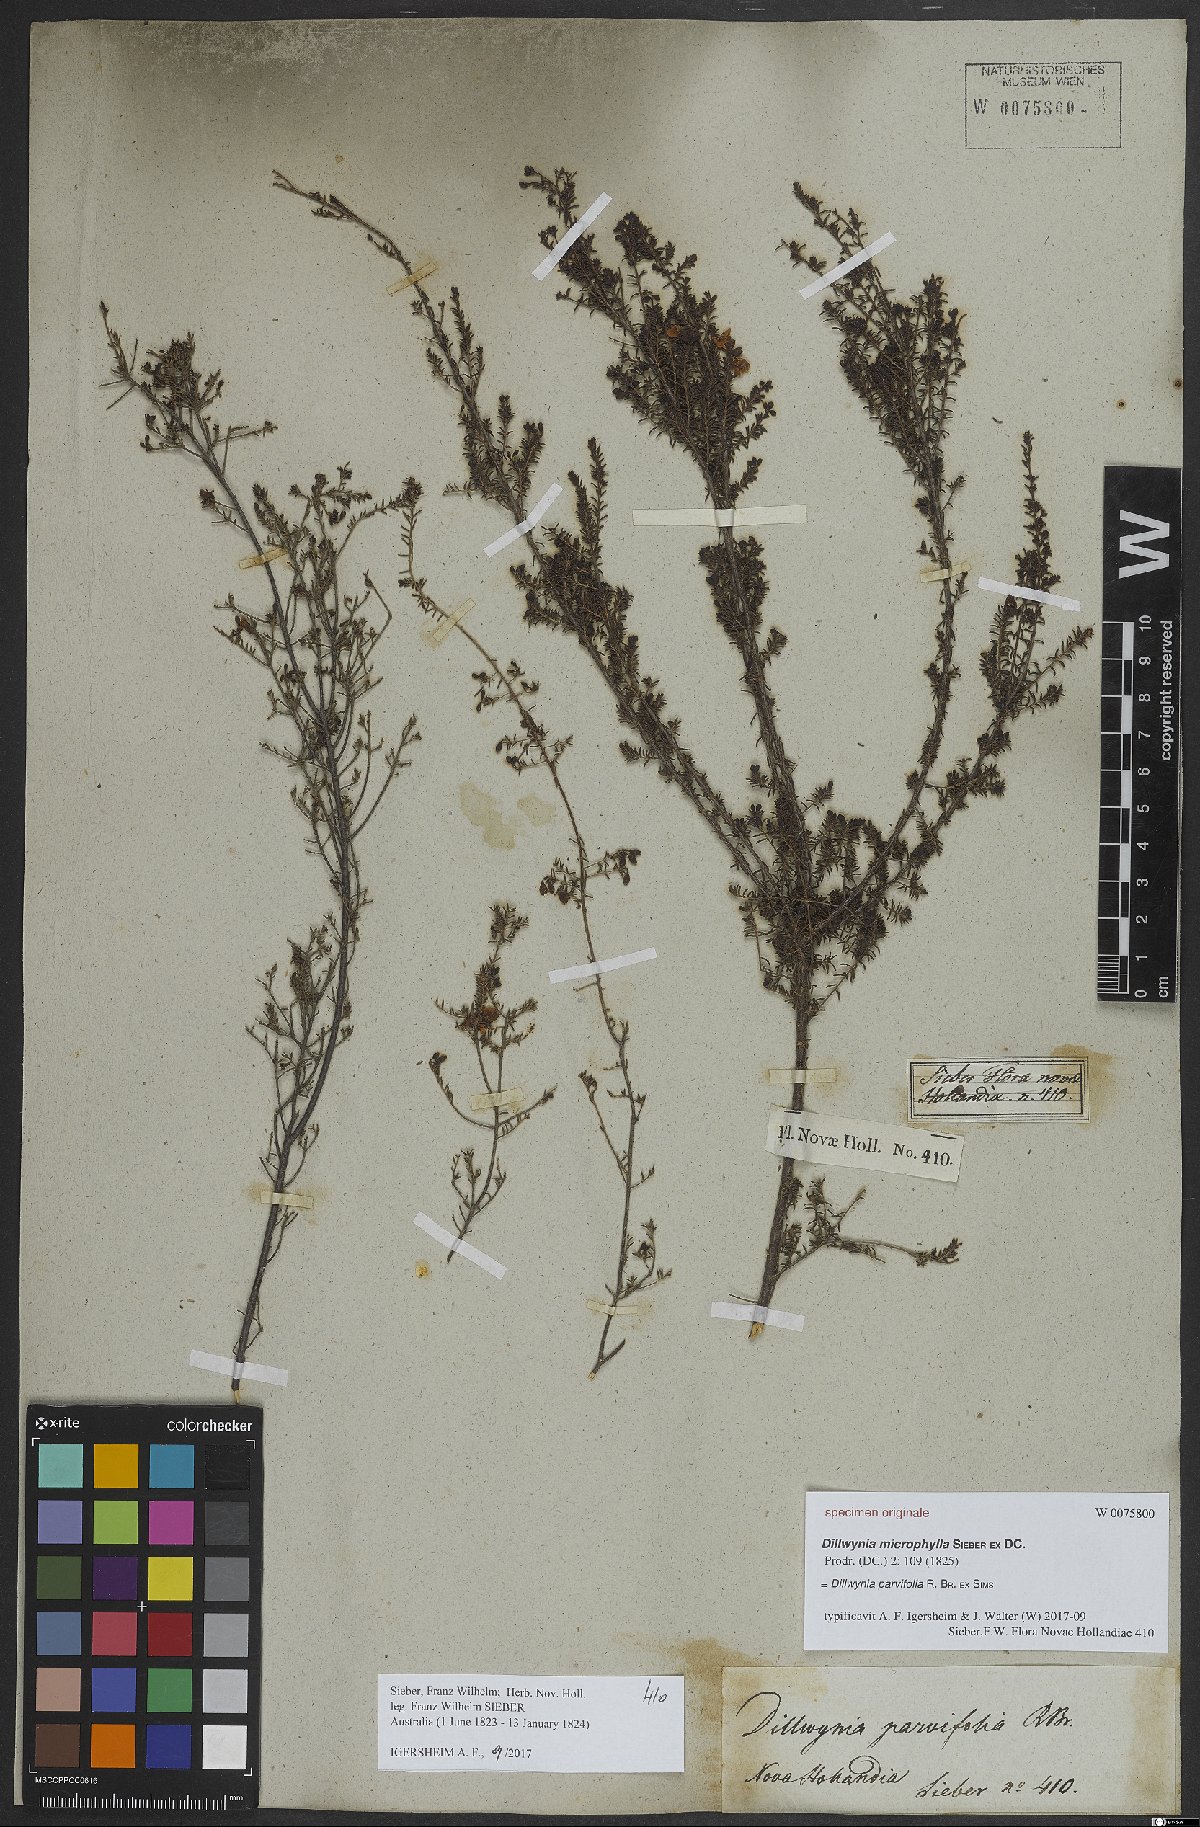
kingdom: Plantae
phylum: Tracheophyta
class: Magnoliopsida
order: Fabales
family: Fabaceae
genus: Dillwynia
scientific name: Dillwynia parvifolia
